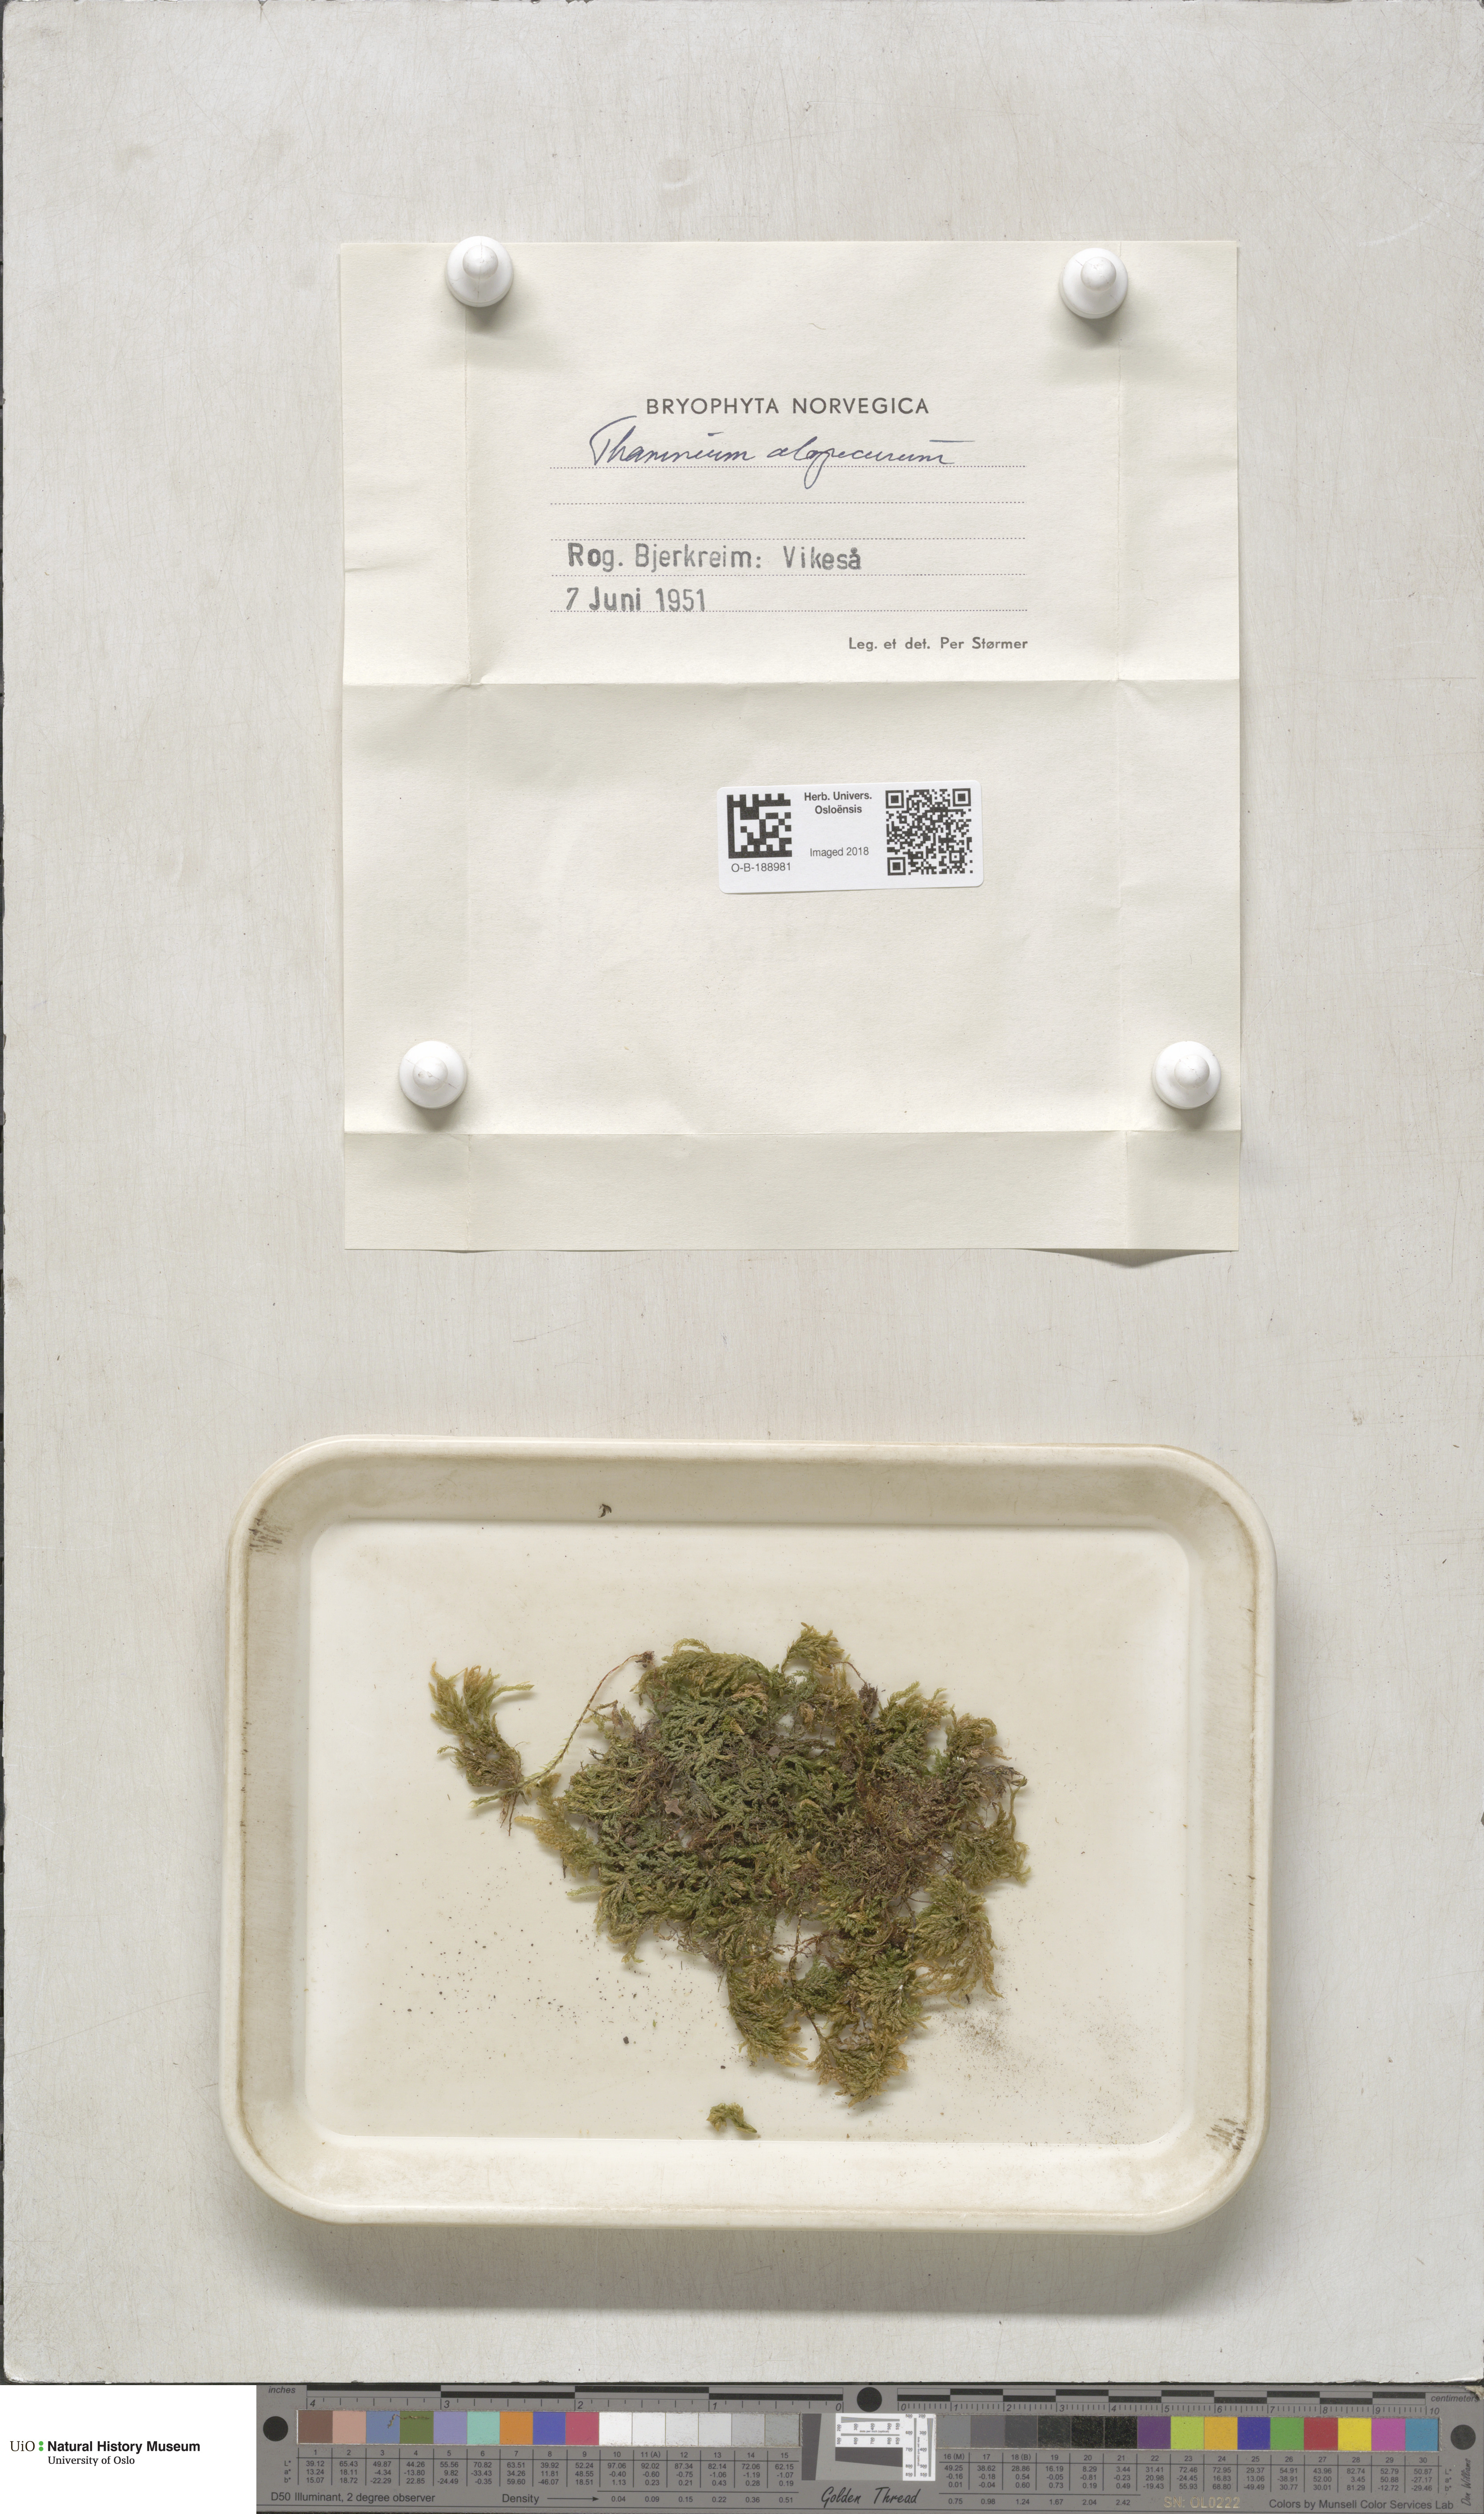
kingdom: Plantae
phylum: Bryophyta
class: Bryopsida
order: Hypnales
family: Neckeraceae
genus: Thamnobryum
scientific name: Thamnobryum alopecurum
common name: Fox-tail feather-moss
